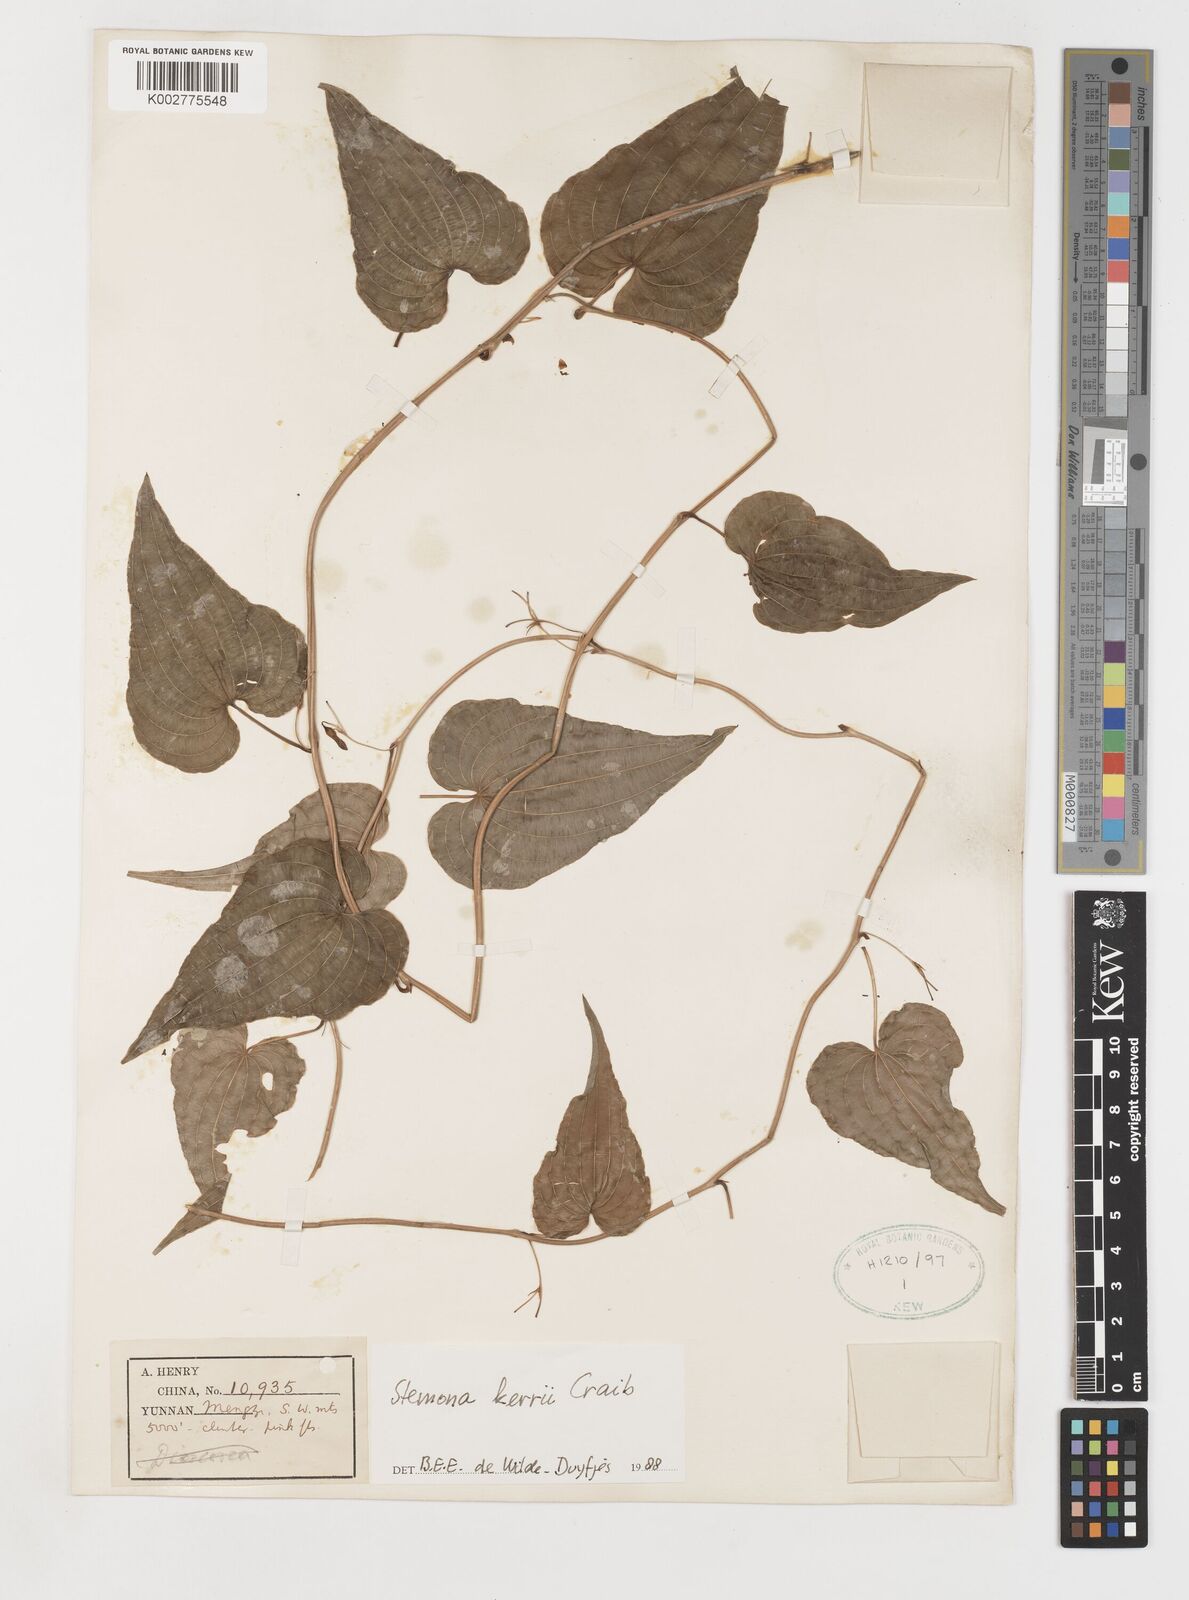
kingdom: Plantae
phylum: Tracheophyta
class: Liliopsida
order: Pandanales
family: Stemonaceae
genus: Stemona
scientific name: Stemona kerrii
